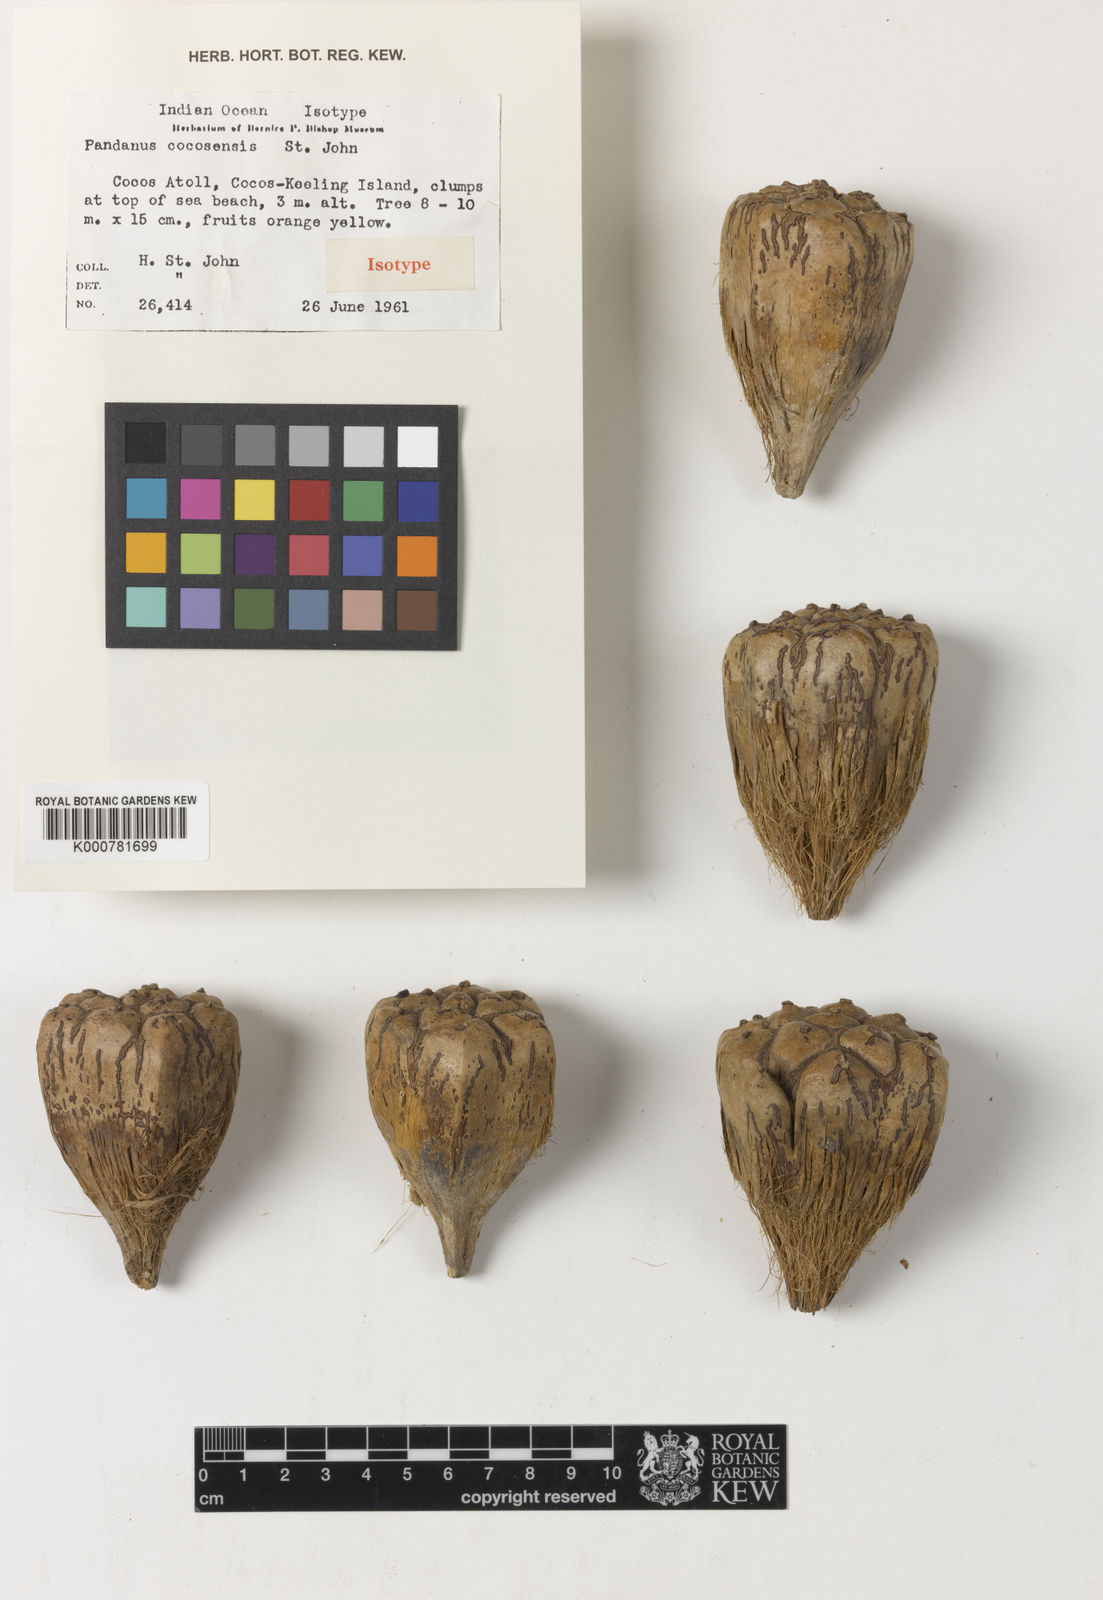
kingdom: Plantae
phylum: Tracheophyta
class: Liliopsida
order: Pandanales
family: Pandanaceae
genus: Pandanus
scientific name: Pandanus
